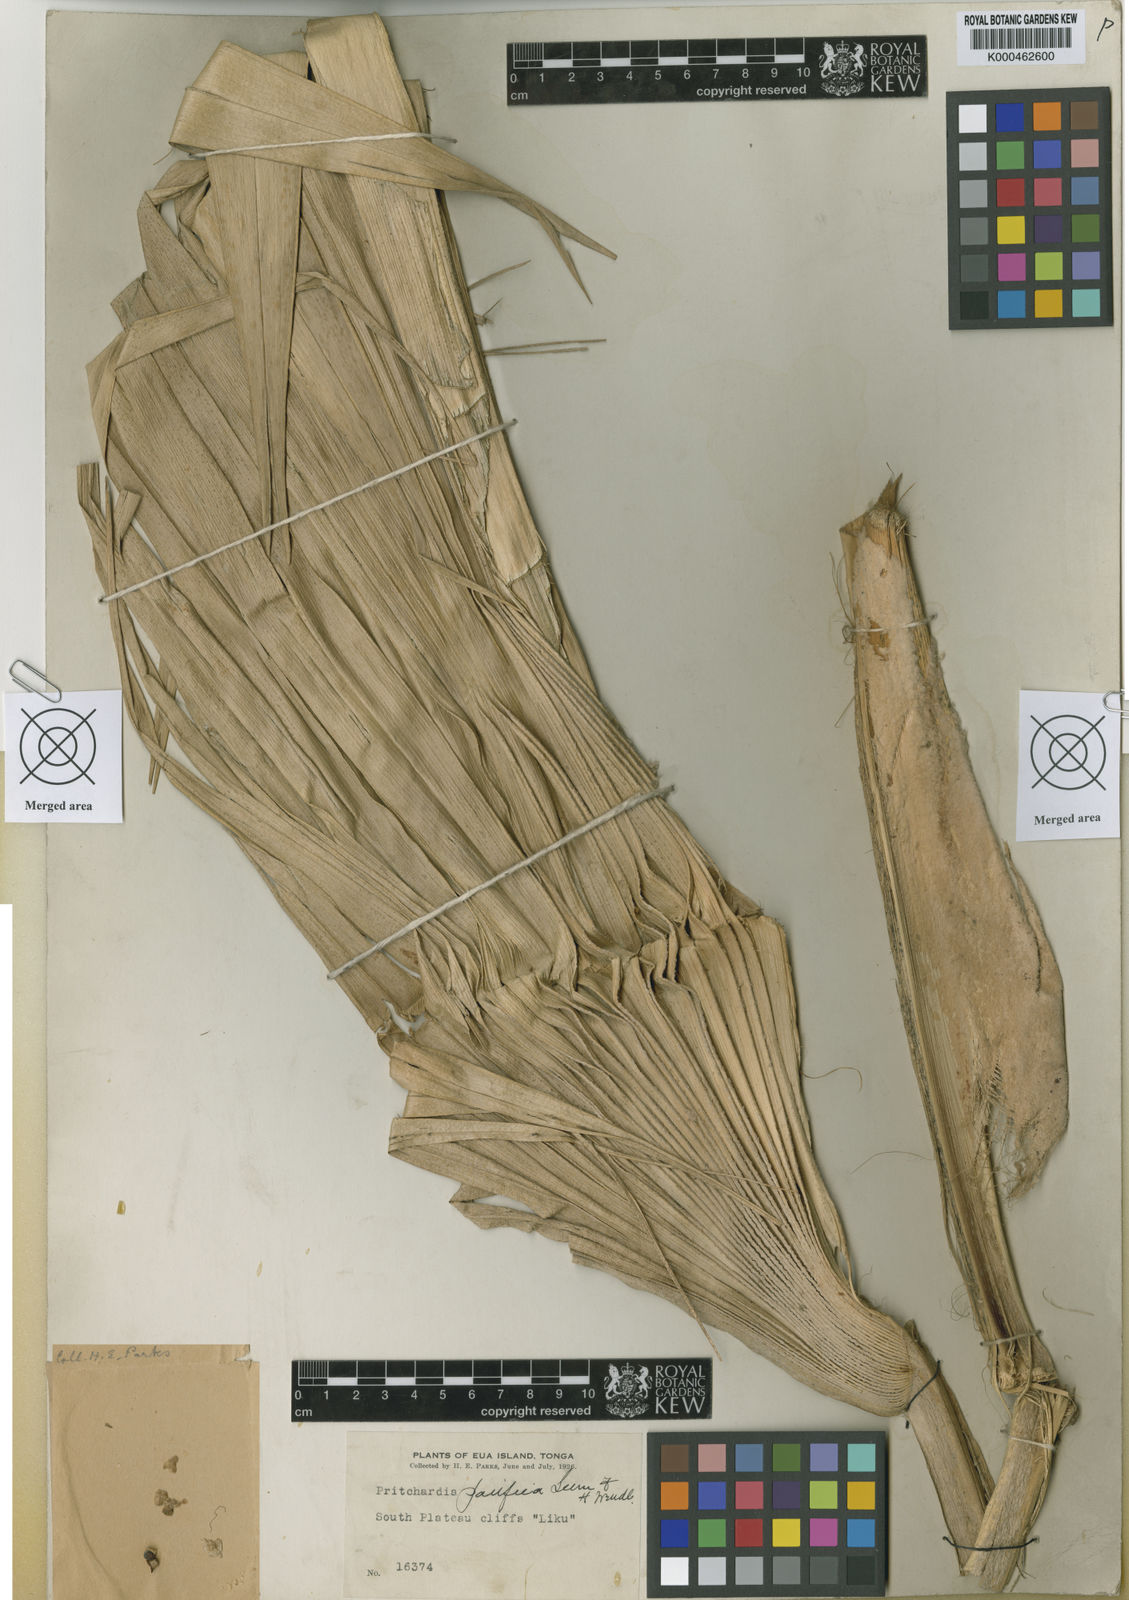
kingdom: Plantae
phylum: Tracheophyta
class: Liliopsida
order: Arecales
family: Arecaceae
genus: Pritchardia
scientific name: Pritchardia pacifica
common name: Fiji fan palm
